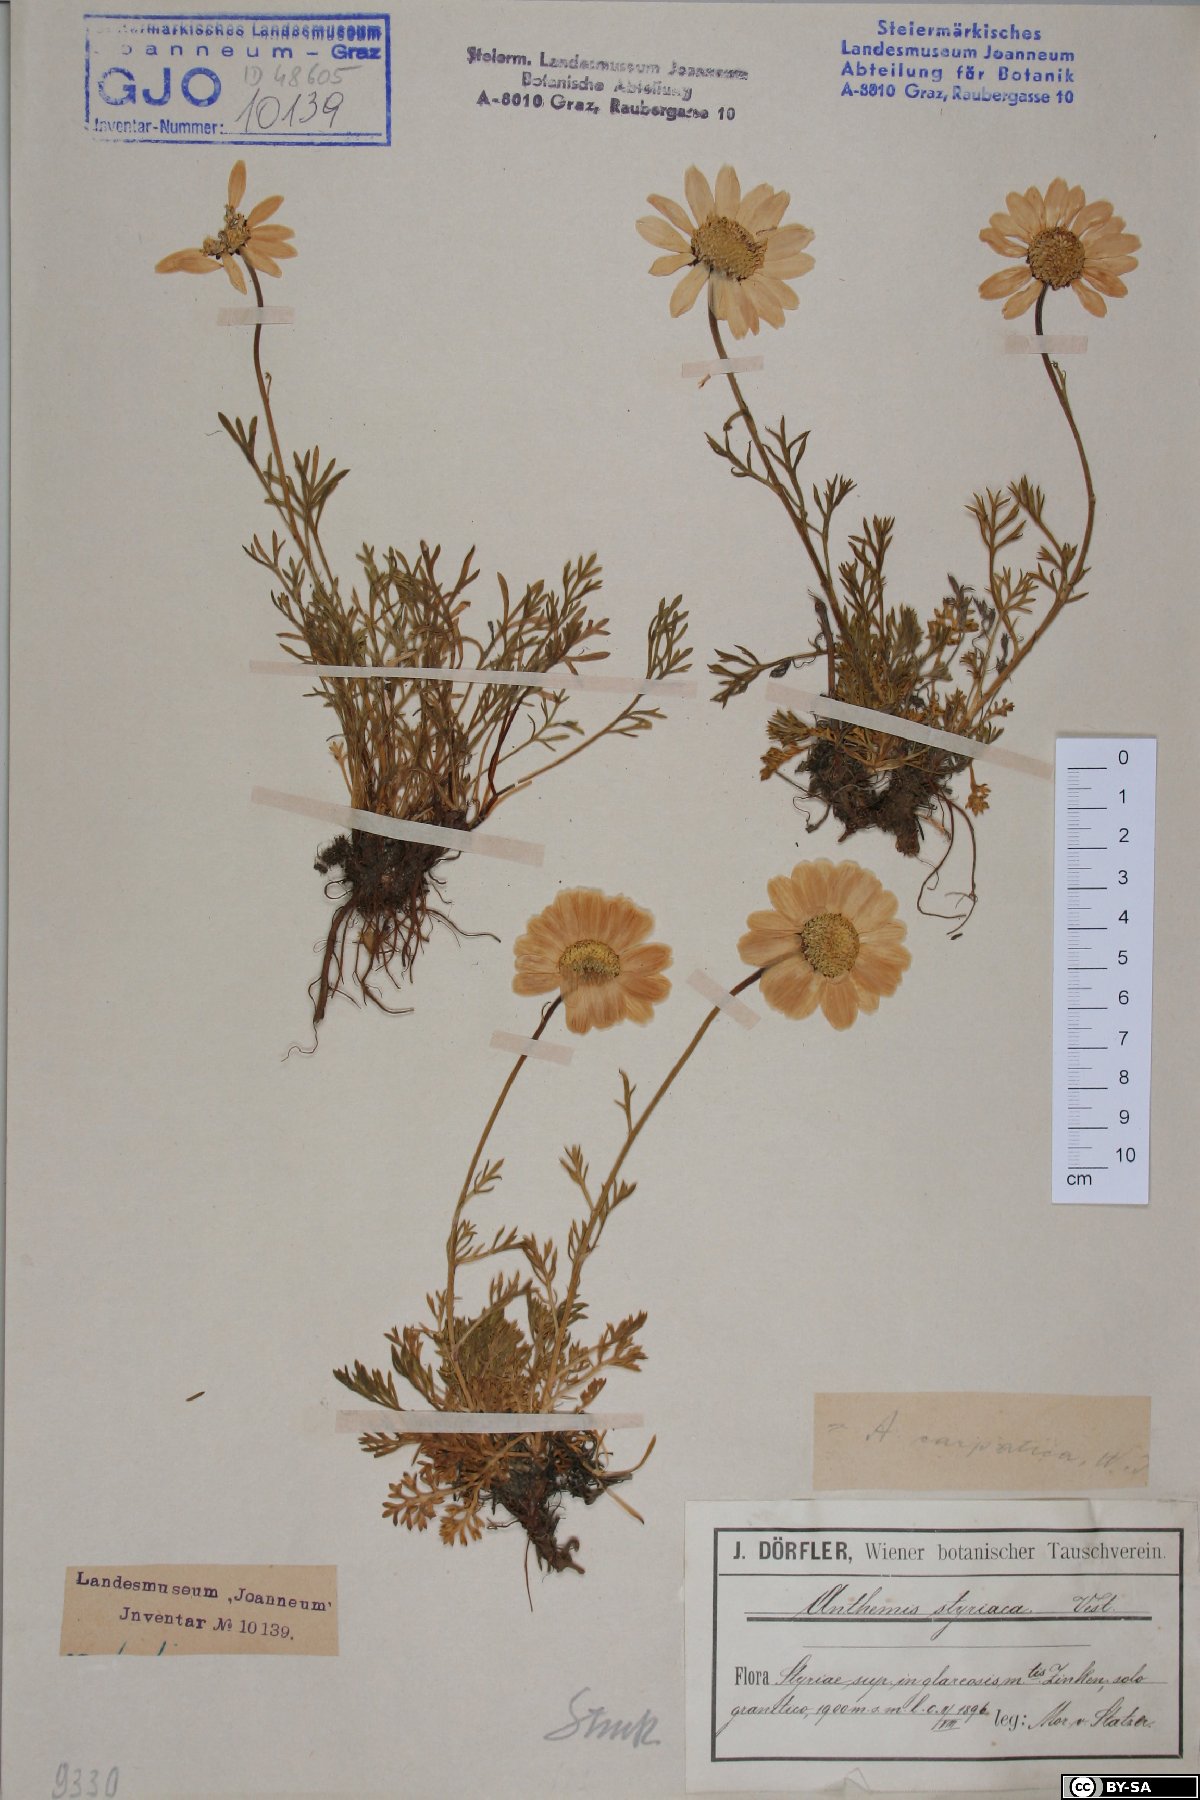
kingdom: Plantae
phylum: Tracheophyta
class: Magnoliopsida
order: Asterales
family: Asteraceae
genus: Anthemis
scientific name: Anthemis cretica
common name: Mountain dog-daisy
